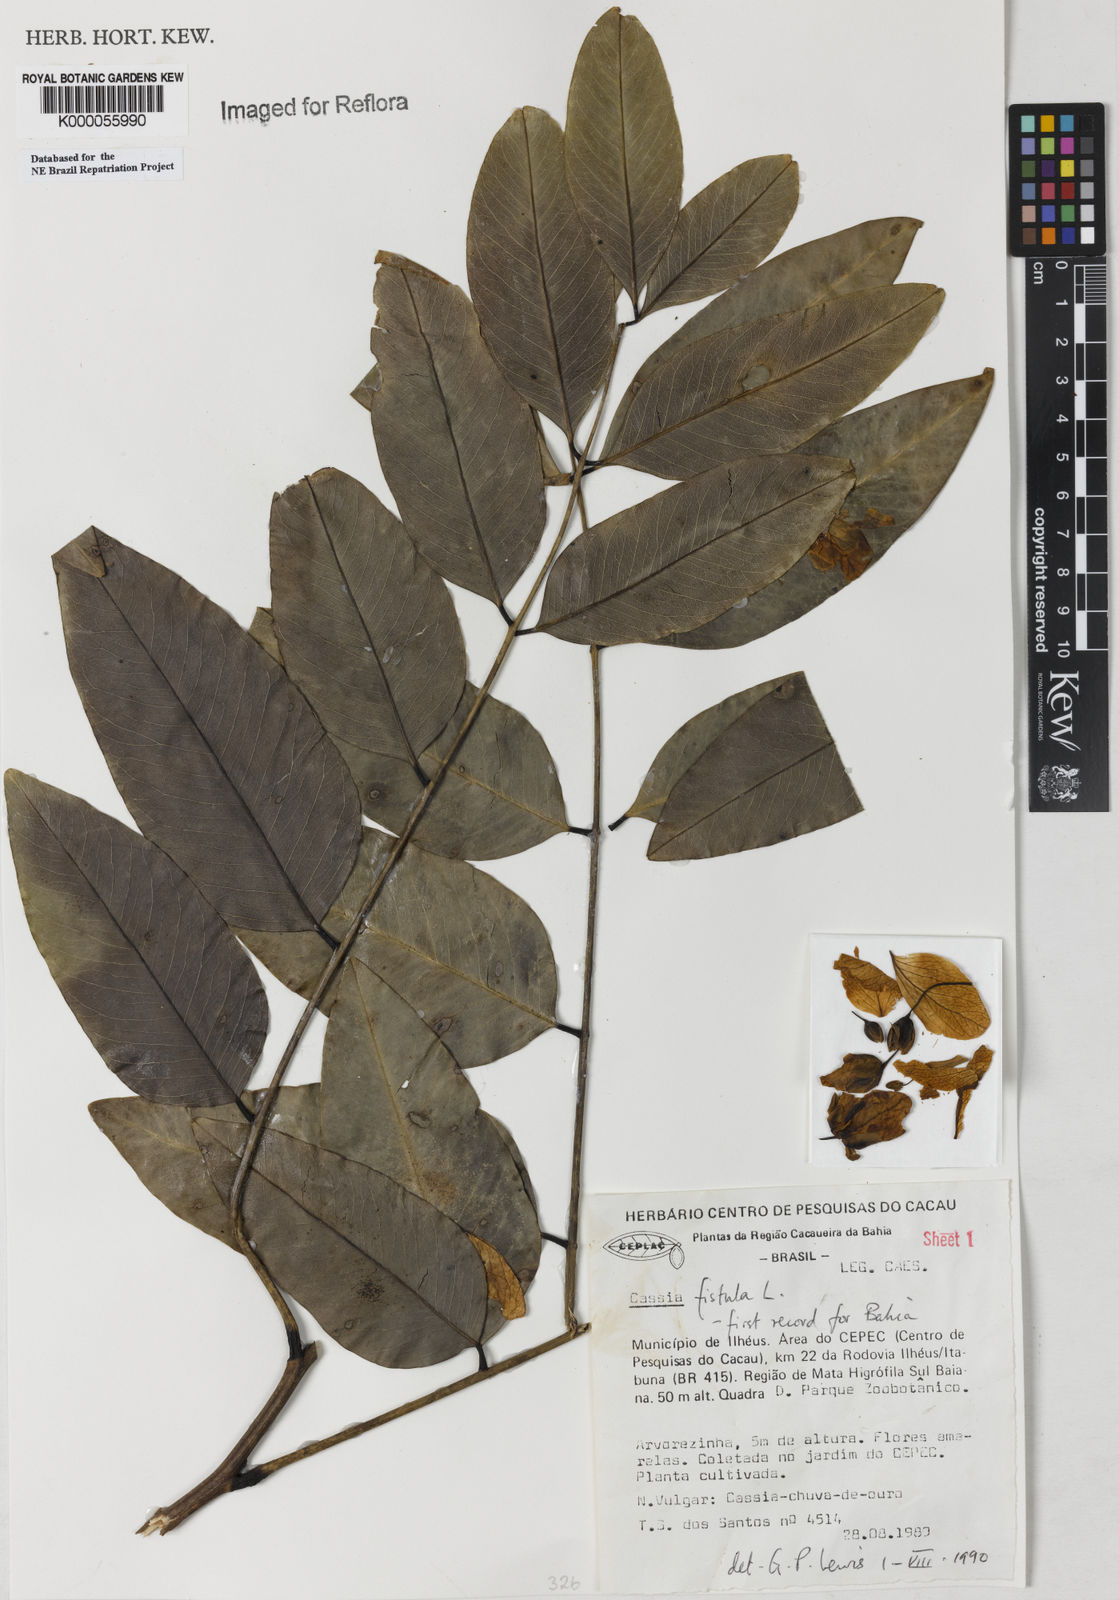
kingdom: Plantae
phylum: Tracheophyta
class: Magnoliopsida
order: Fabales
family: Fabaceae
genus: Cassia
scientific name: Cassia fistula
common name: Golden shower
